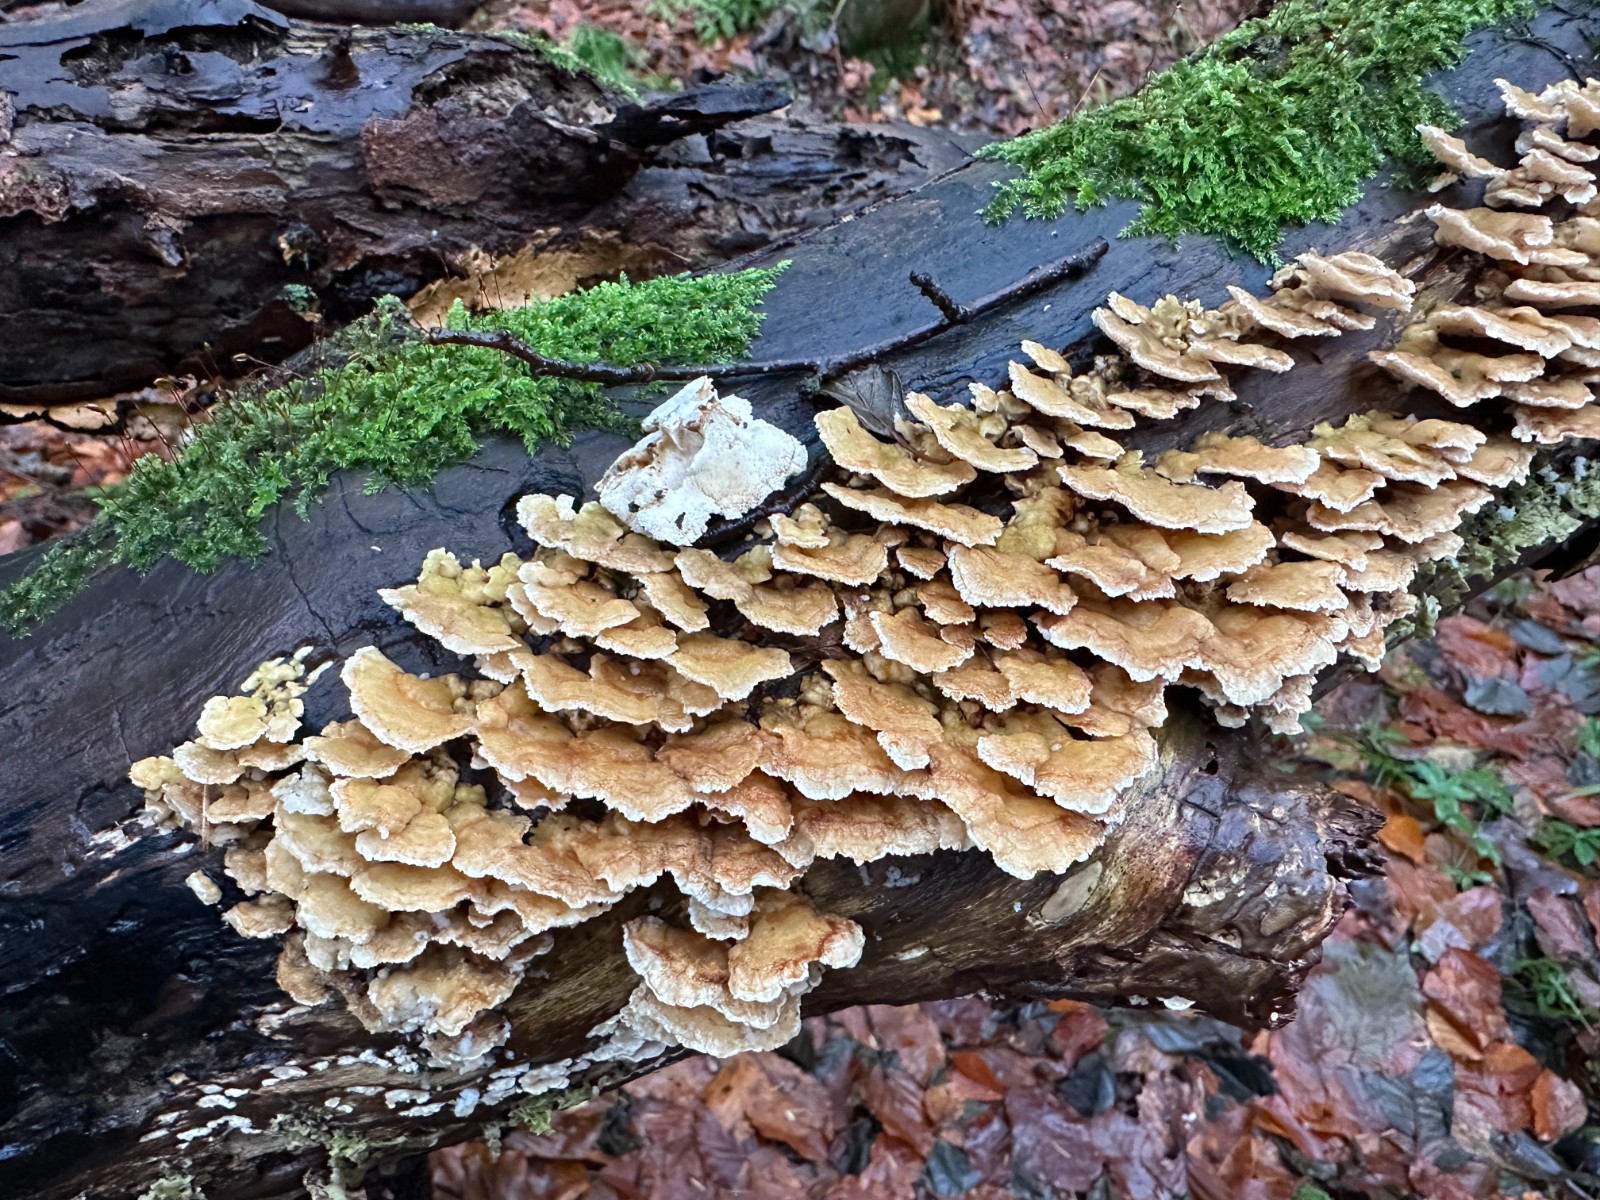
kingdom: Fungi
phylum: Basidiomycota
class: Agaricomycetes
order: Polyporales
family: Polyporaceae
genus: Trametes
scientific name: Trametes ochracea
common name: bæltet læderporesvamp
